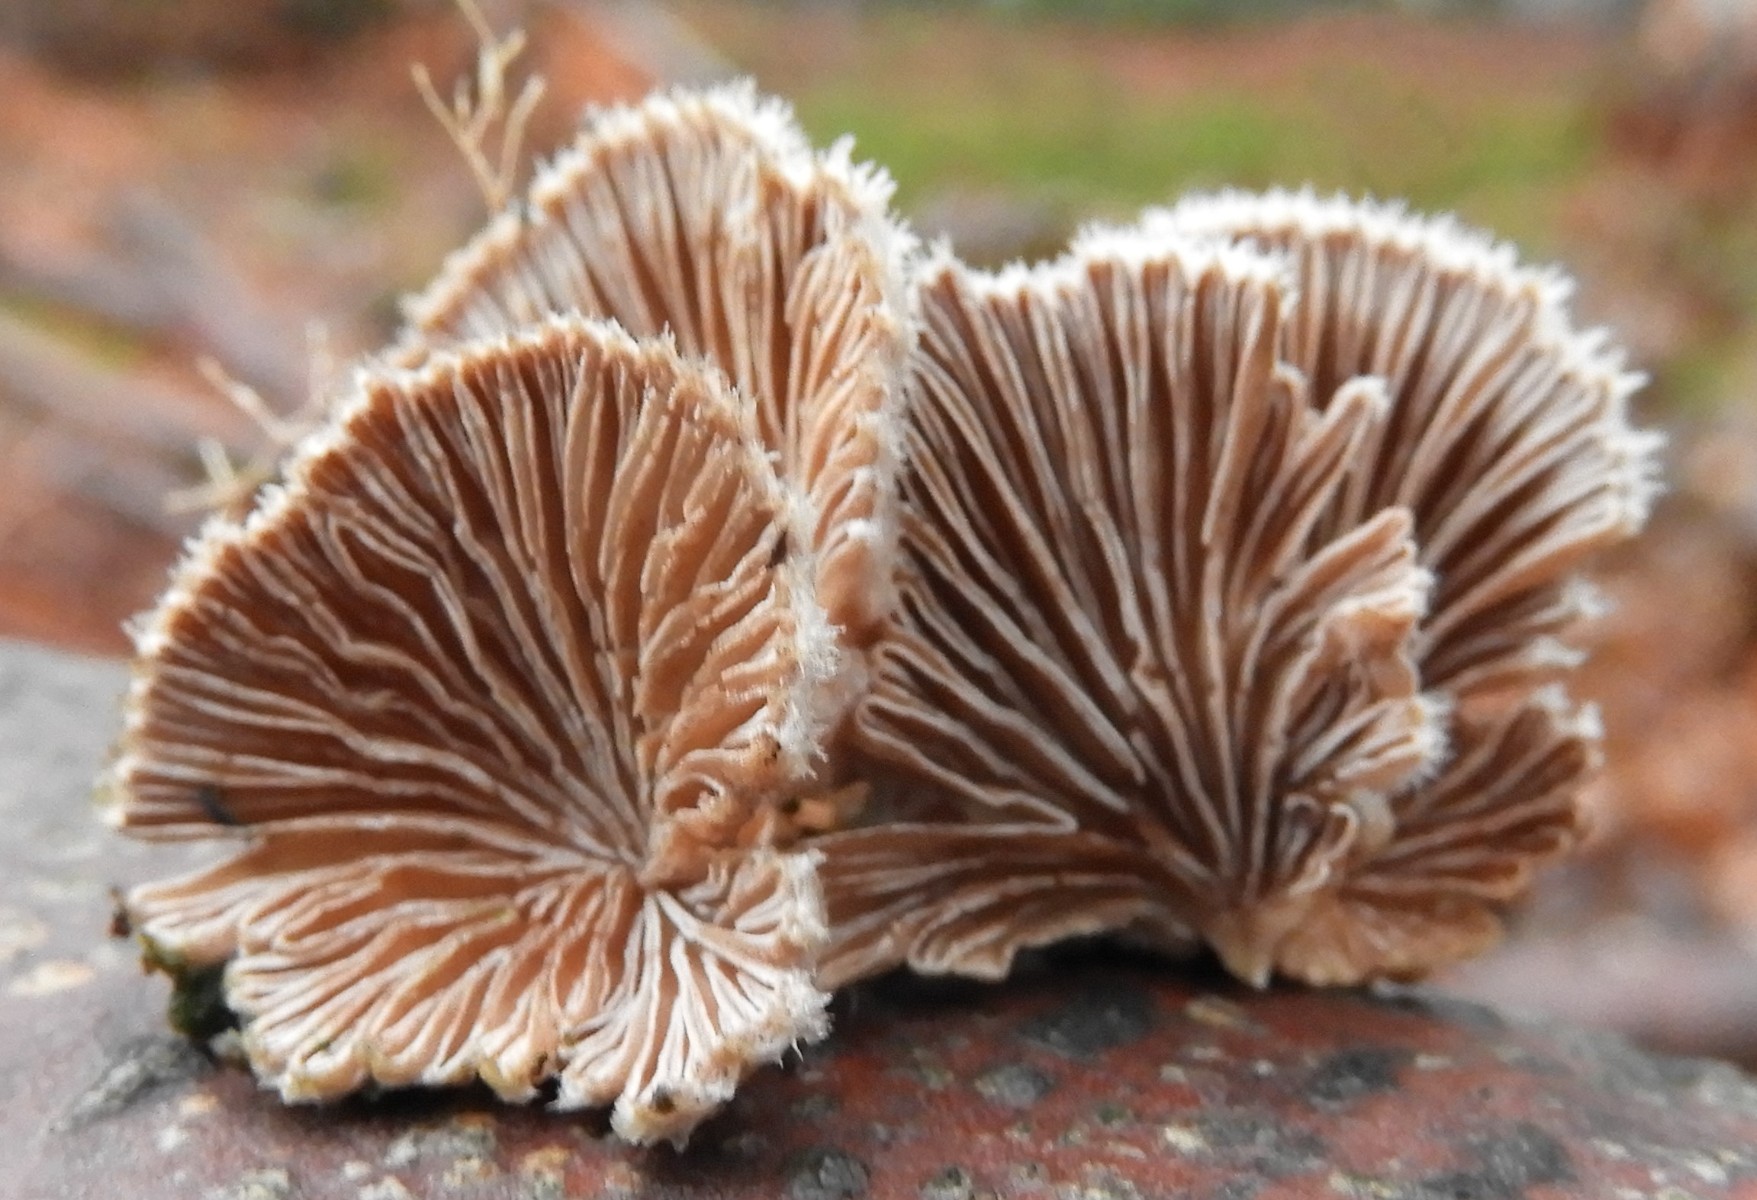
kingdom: Fungi
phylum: Basidiomycota
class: Agaricomycetes
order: Agaricales
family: Schizophyllaceae
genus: Schizophyllum
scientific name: Schizophyllum commune
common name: kløvblad
